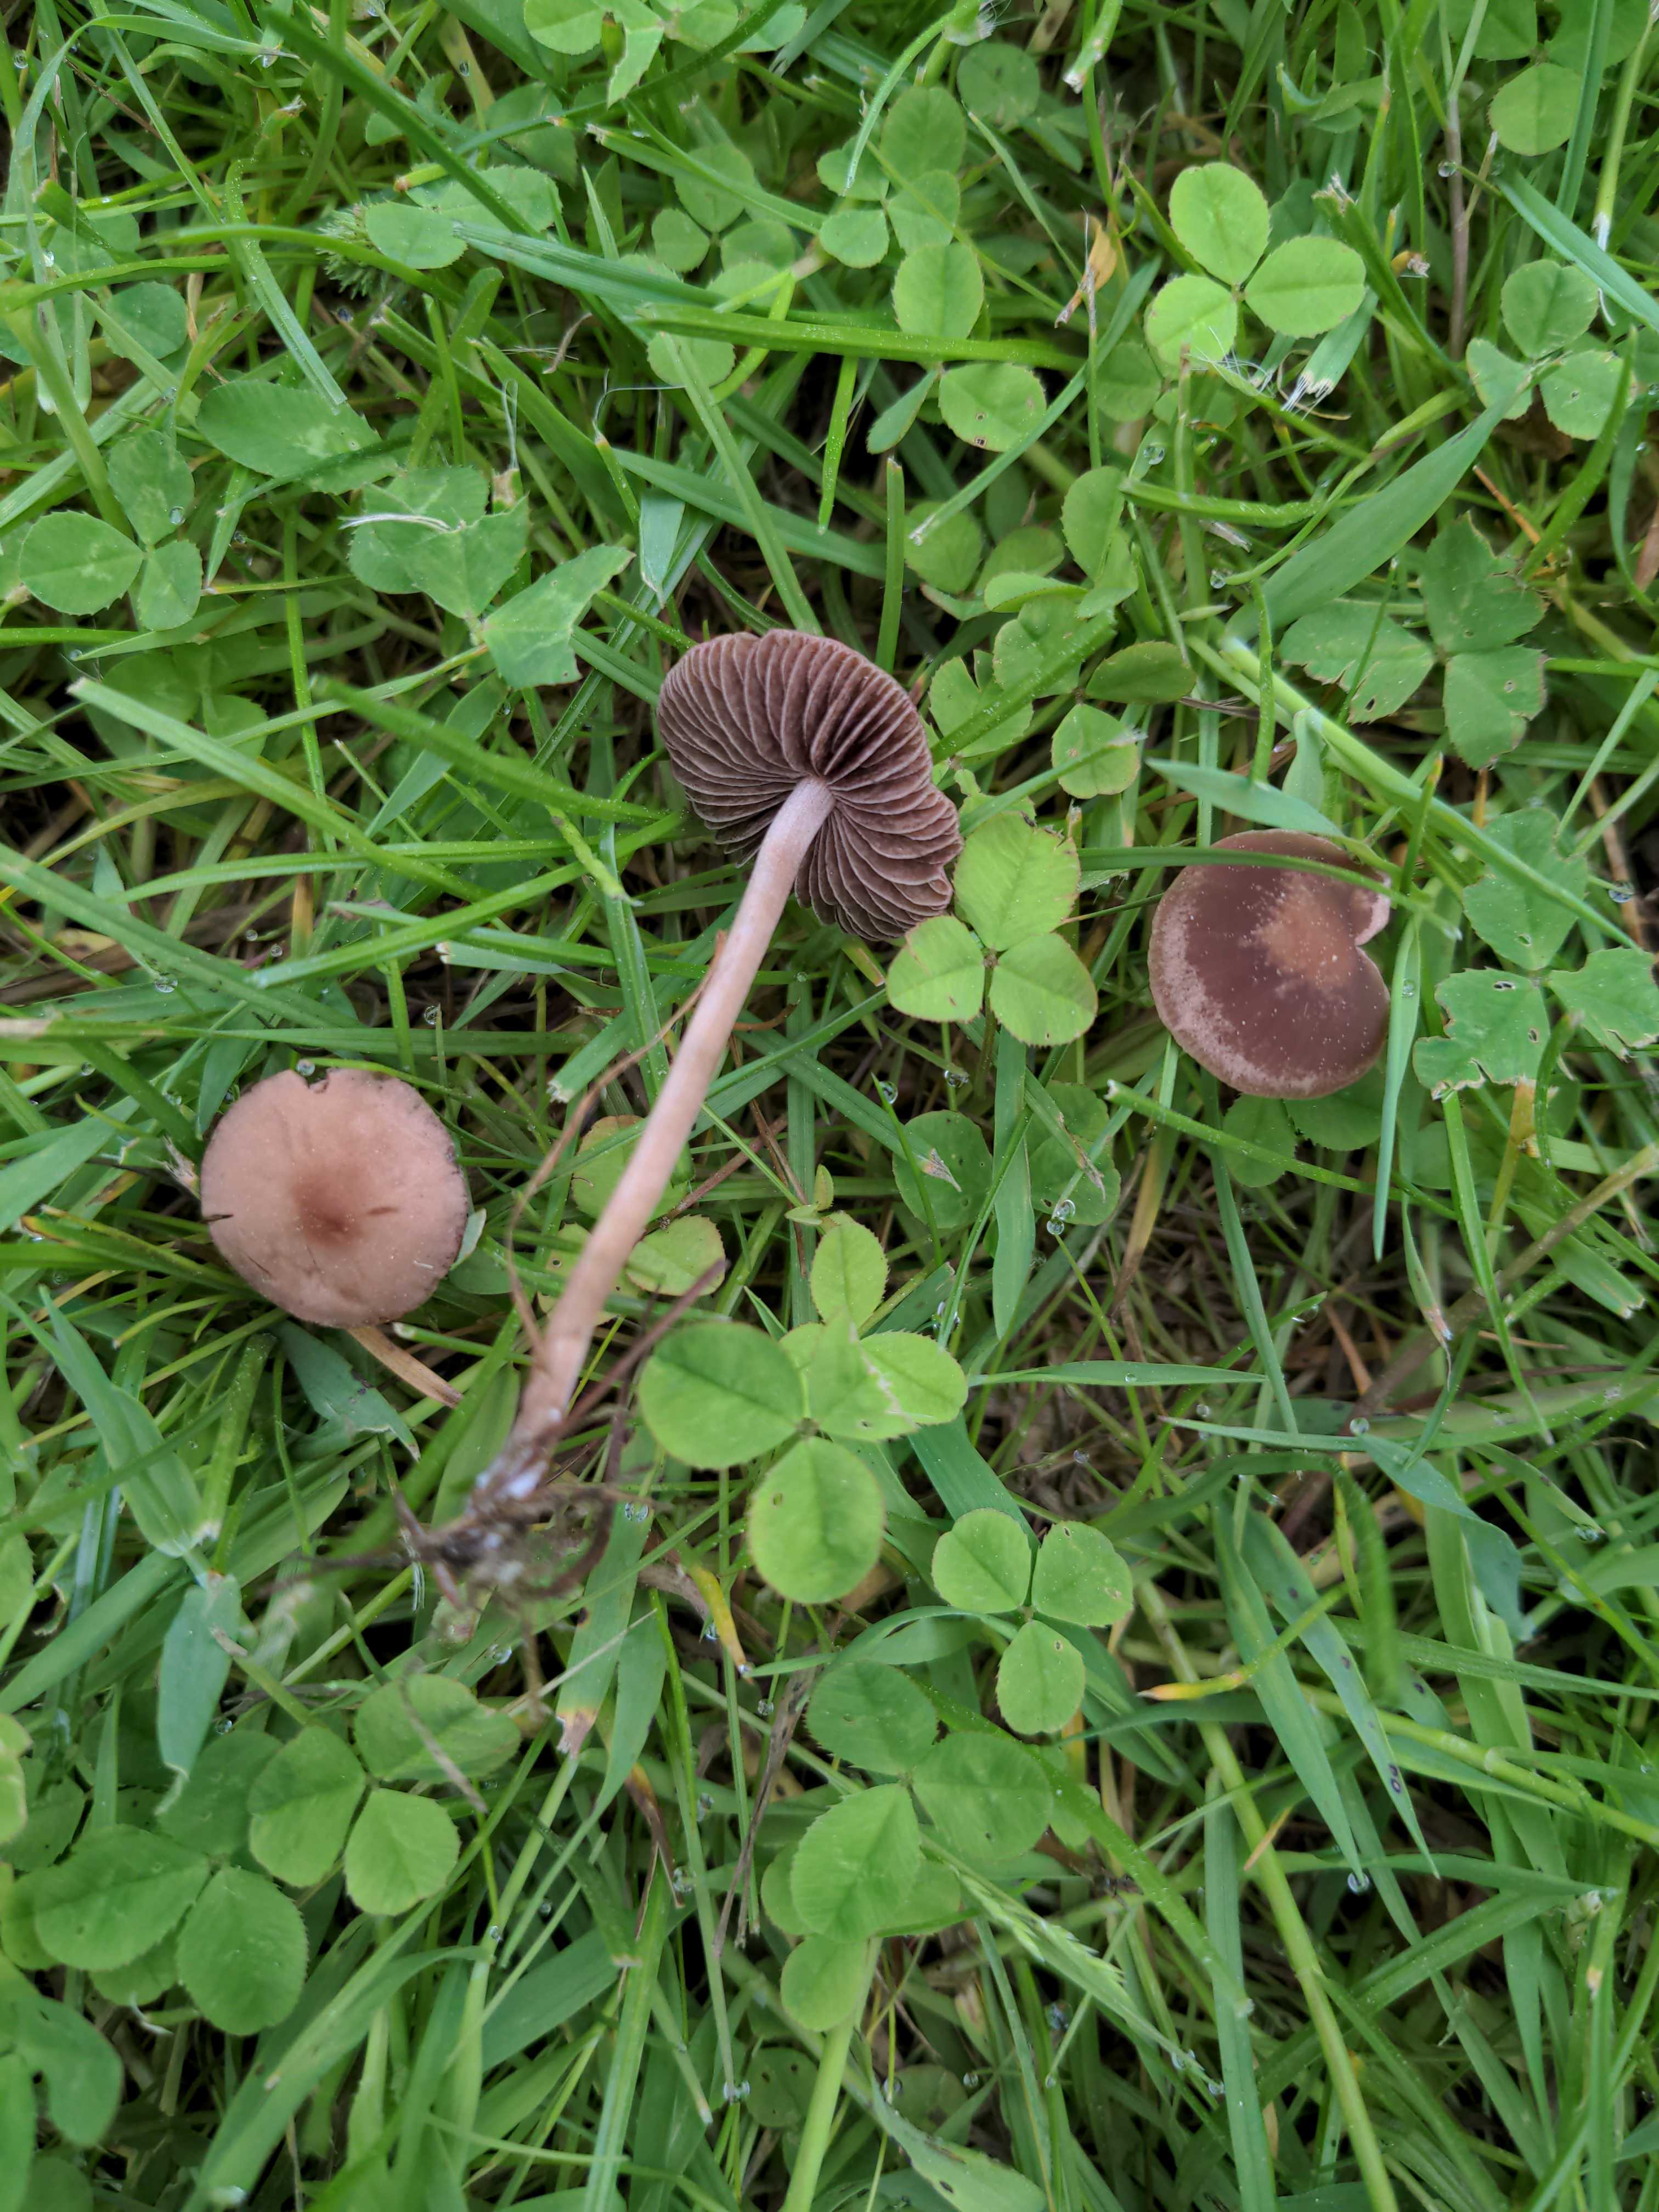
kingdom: Fungi
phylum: Basidiomycota
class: Agaricomycetes
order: Agaricales
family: Bolbitiaceae
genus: Panaeolina
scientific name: Panaeolina foenisecii
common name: høslætsvamp
